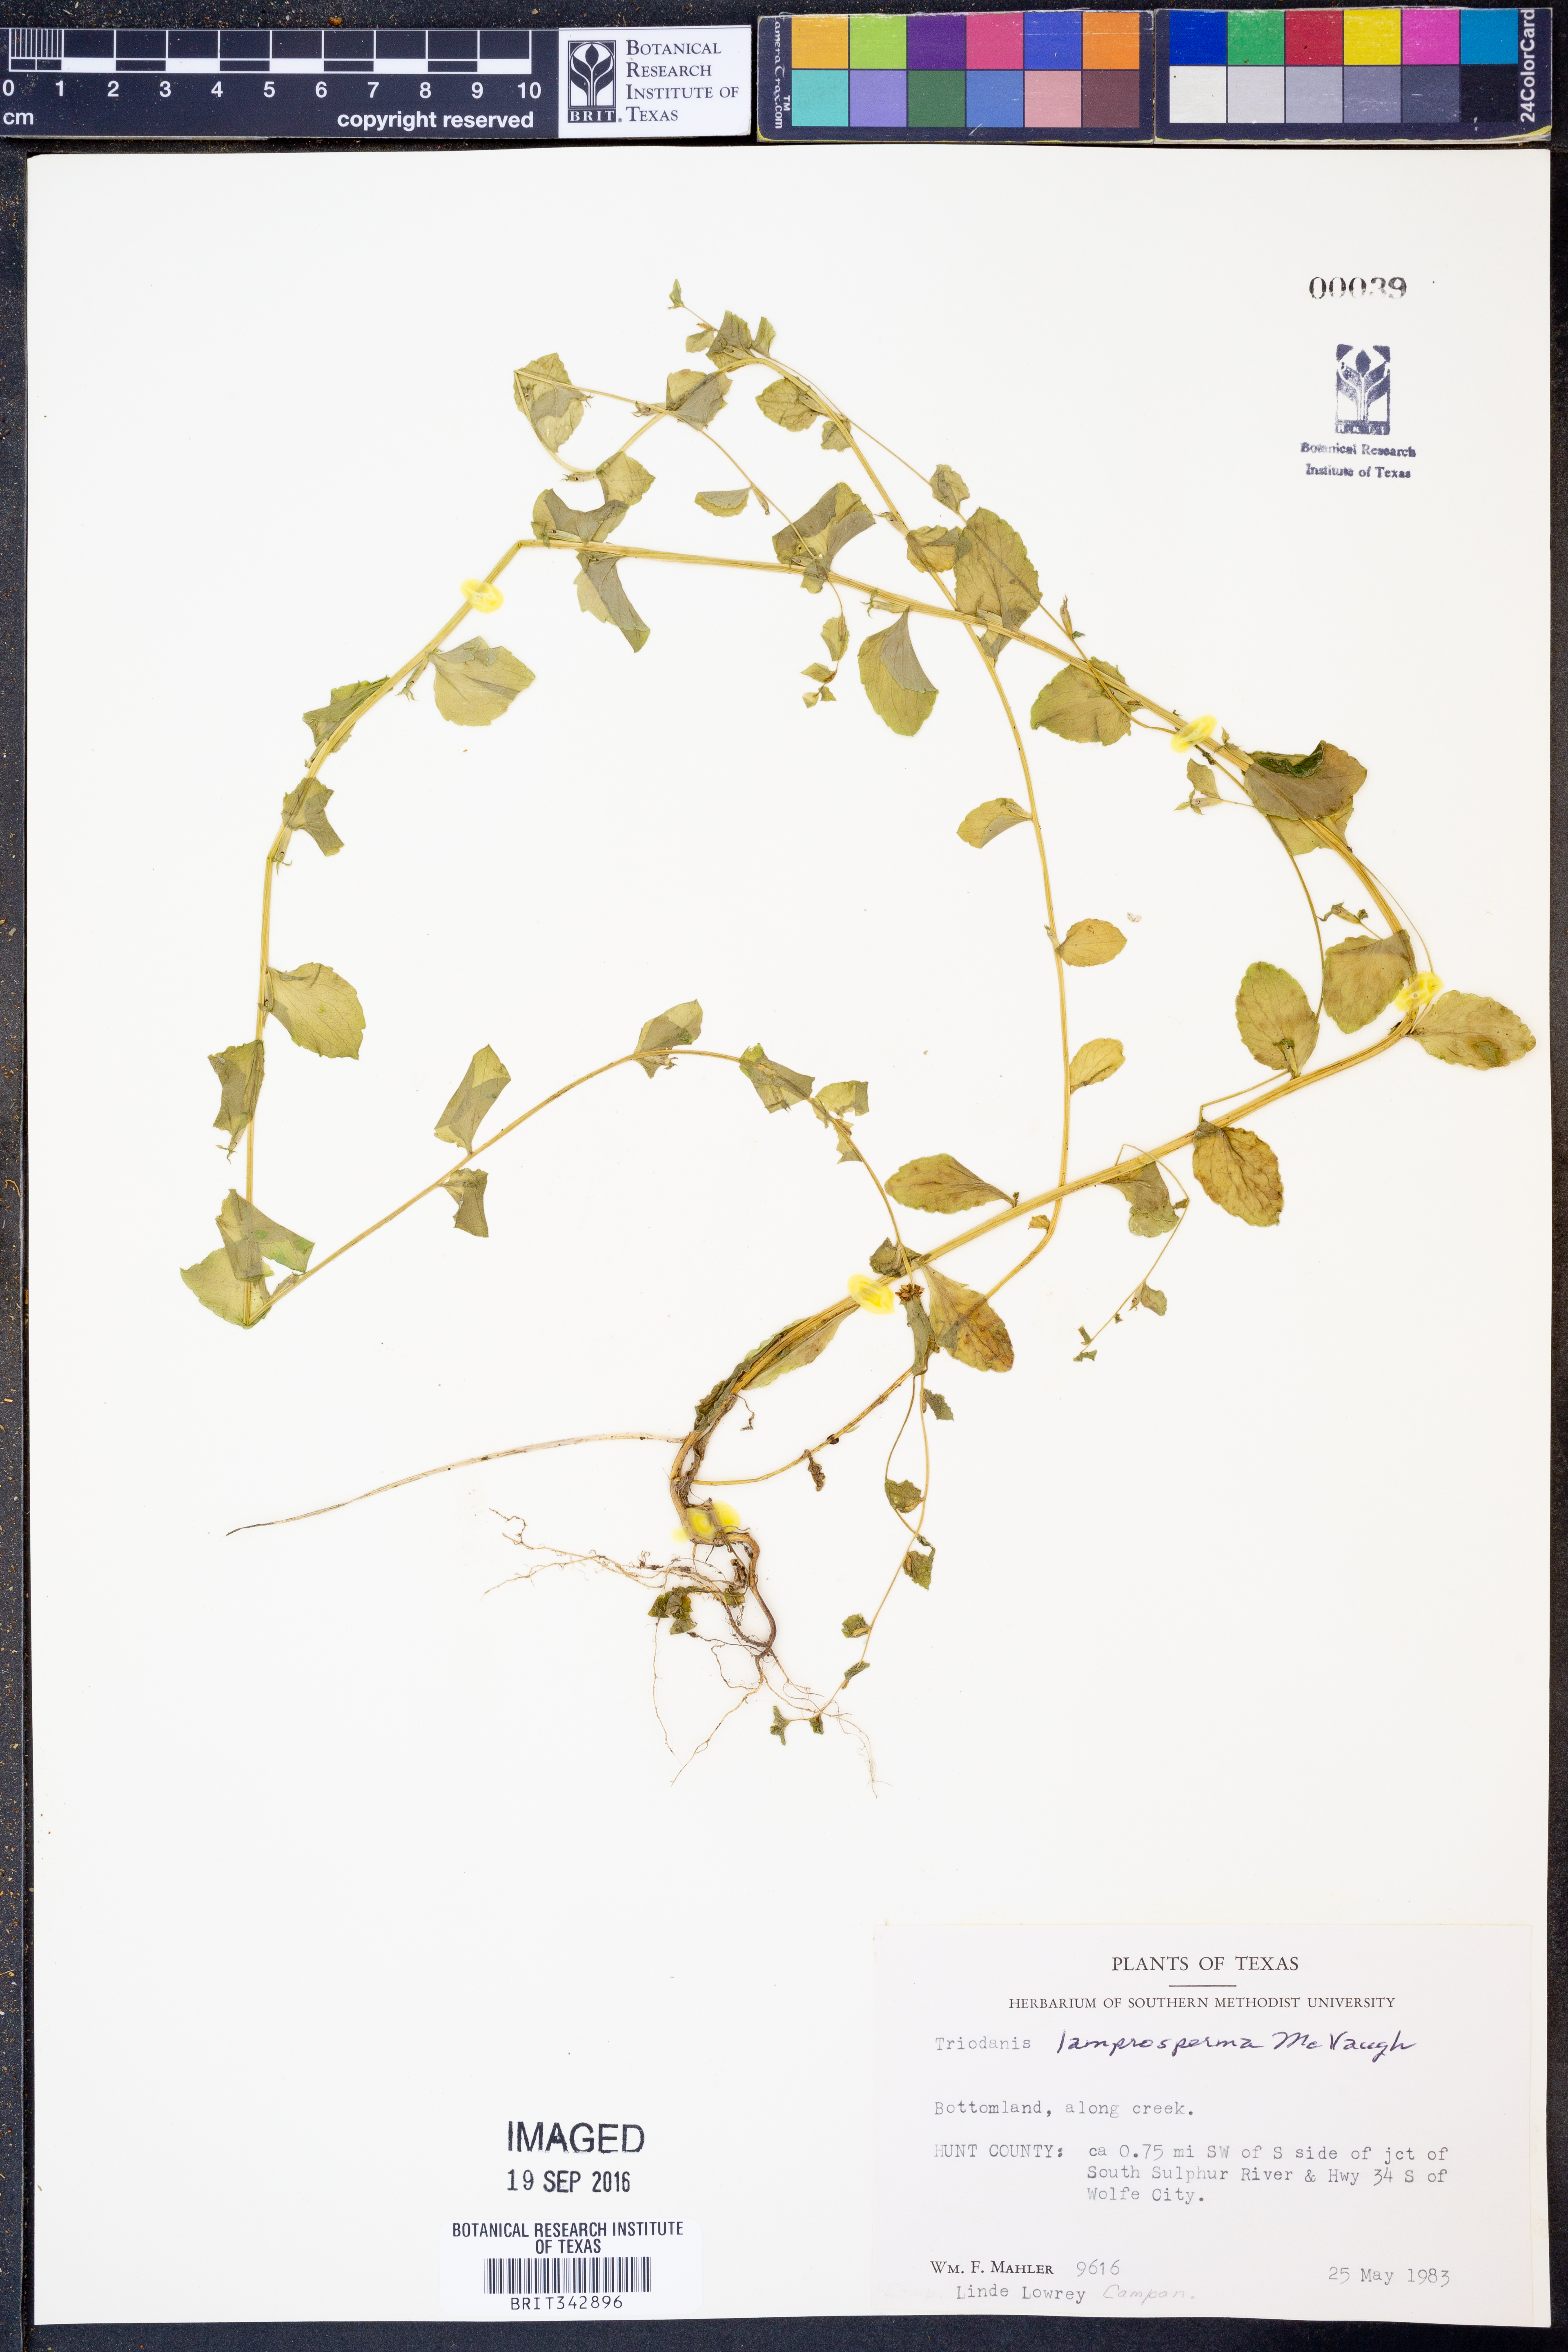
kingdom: Plantae
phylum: Tracheophyta
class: Magnoliopsida
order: Asterales
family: Campanulaceae
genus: Triodanis
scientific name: Triodanis lamprosperma
